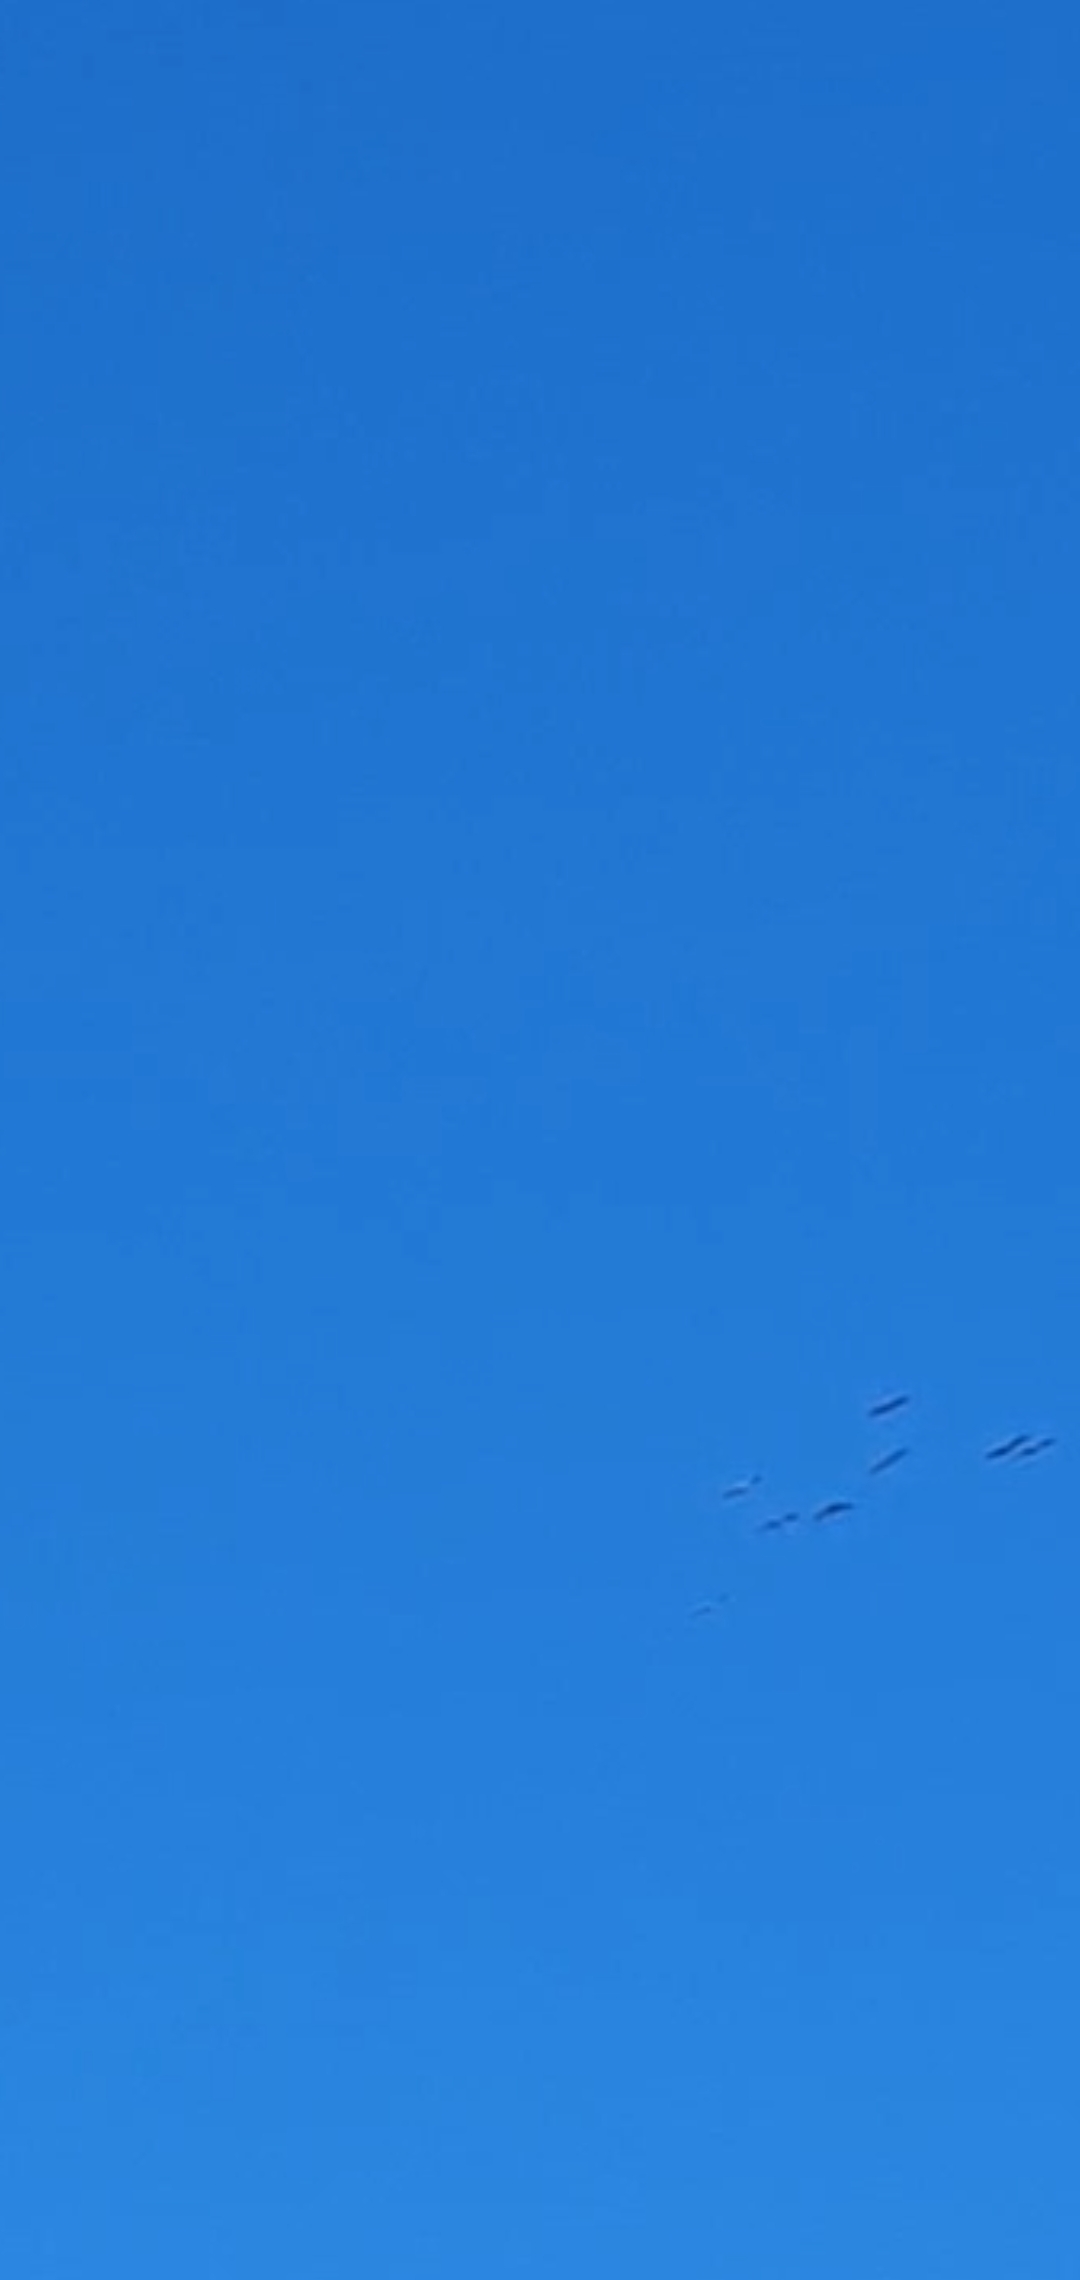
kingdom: Animalia
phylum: Chordata
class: Aves
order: Ciconiiformes
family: Ciconiidae
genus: Ciconia
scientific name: Ciconia ciconia
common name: Hvid stork
